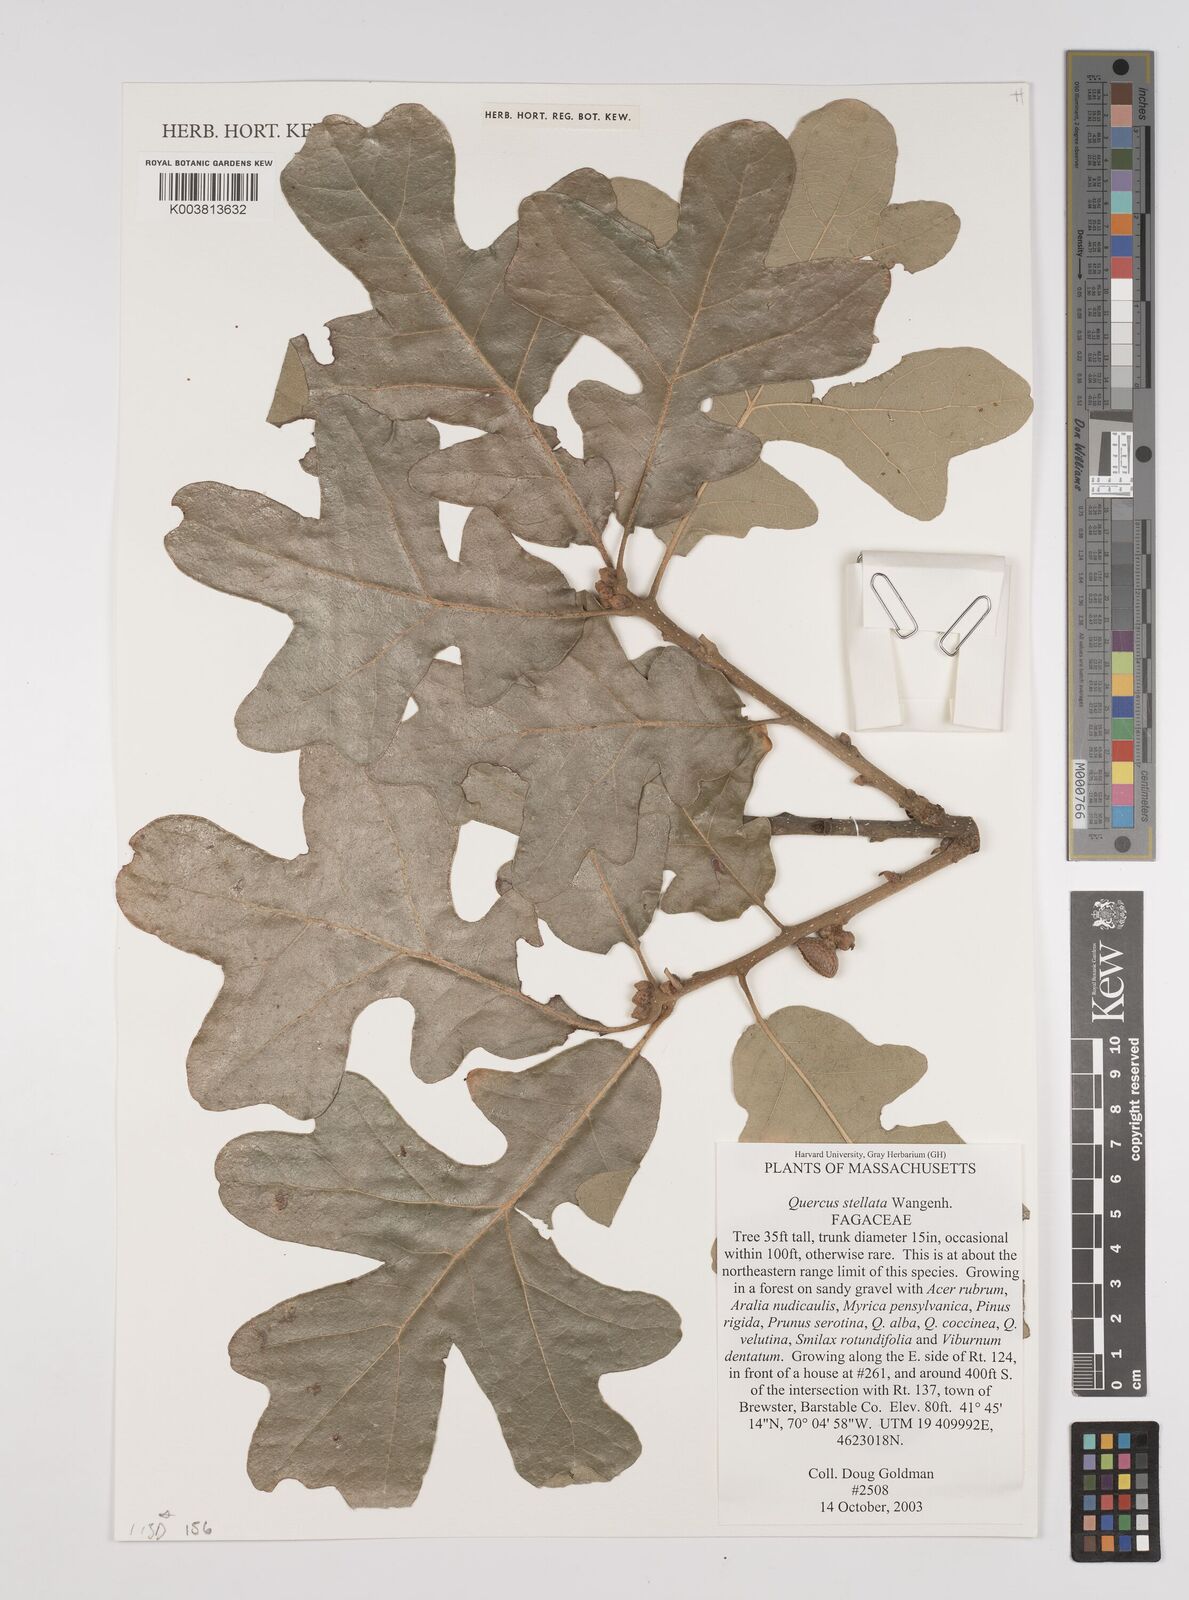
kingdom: Plantae
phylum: Tracheophyta
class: Magnoliopsida
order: Fagales
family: Fagaceae
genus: Quercus
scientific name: Quercus stellata
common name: Post oak
